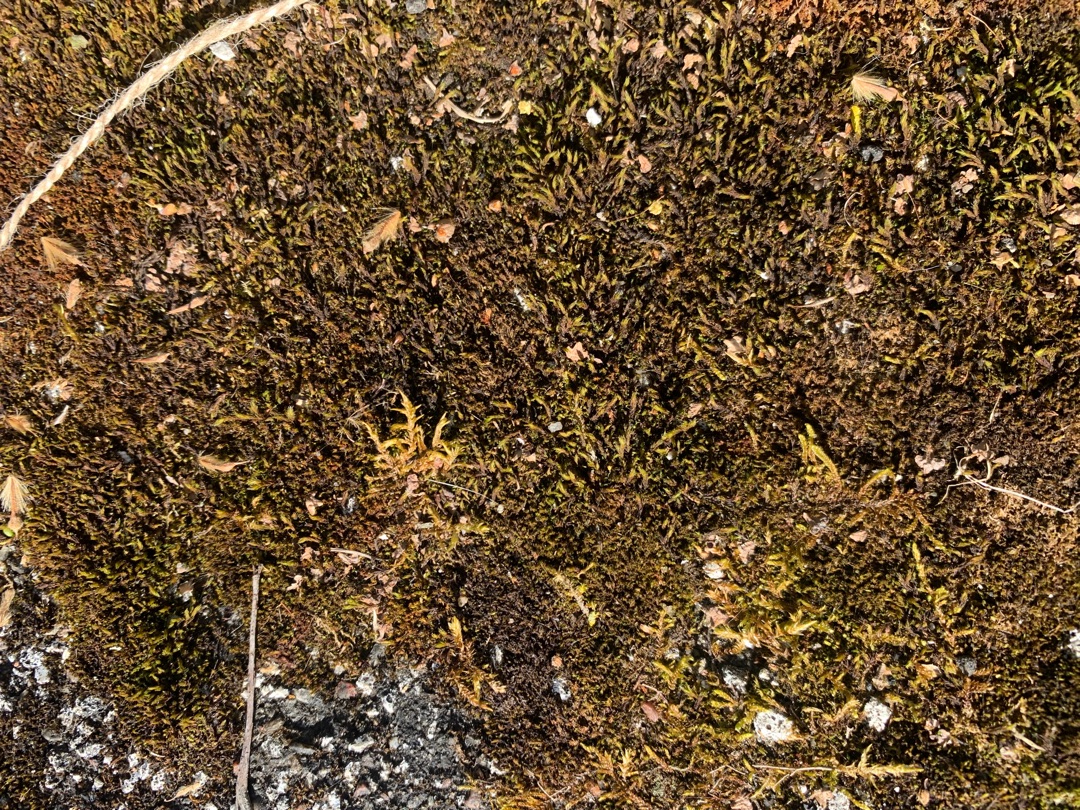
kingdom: Plantae
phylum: Bryophyta
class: Bryopsida
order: Pottiales
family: Pottiaceae
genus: Didymodon
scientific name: Didymodon rigidulus
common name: Stiv kalktuemos
